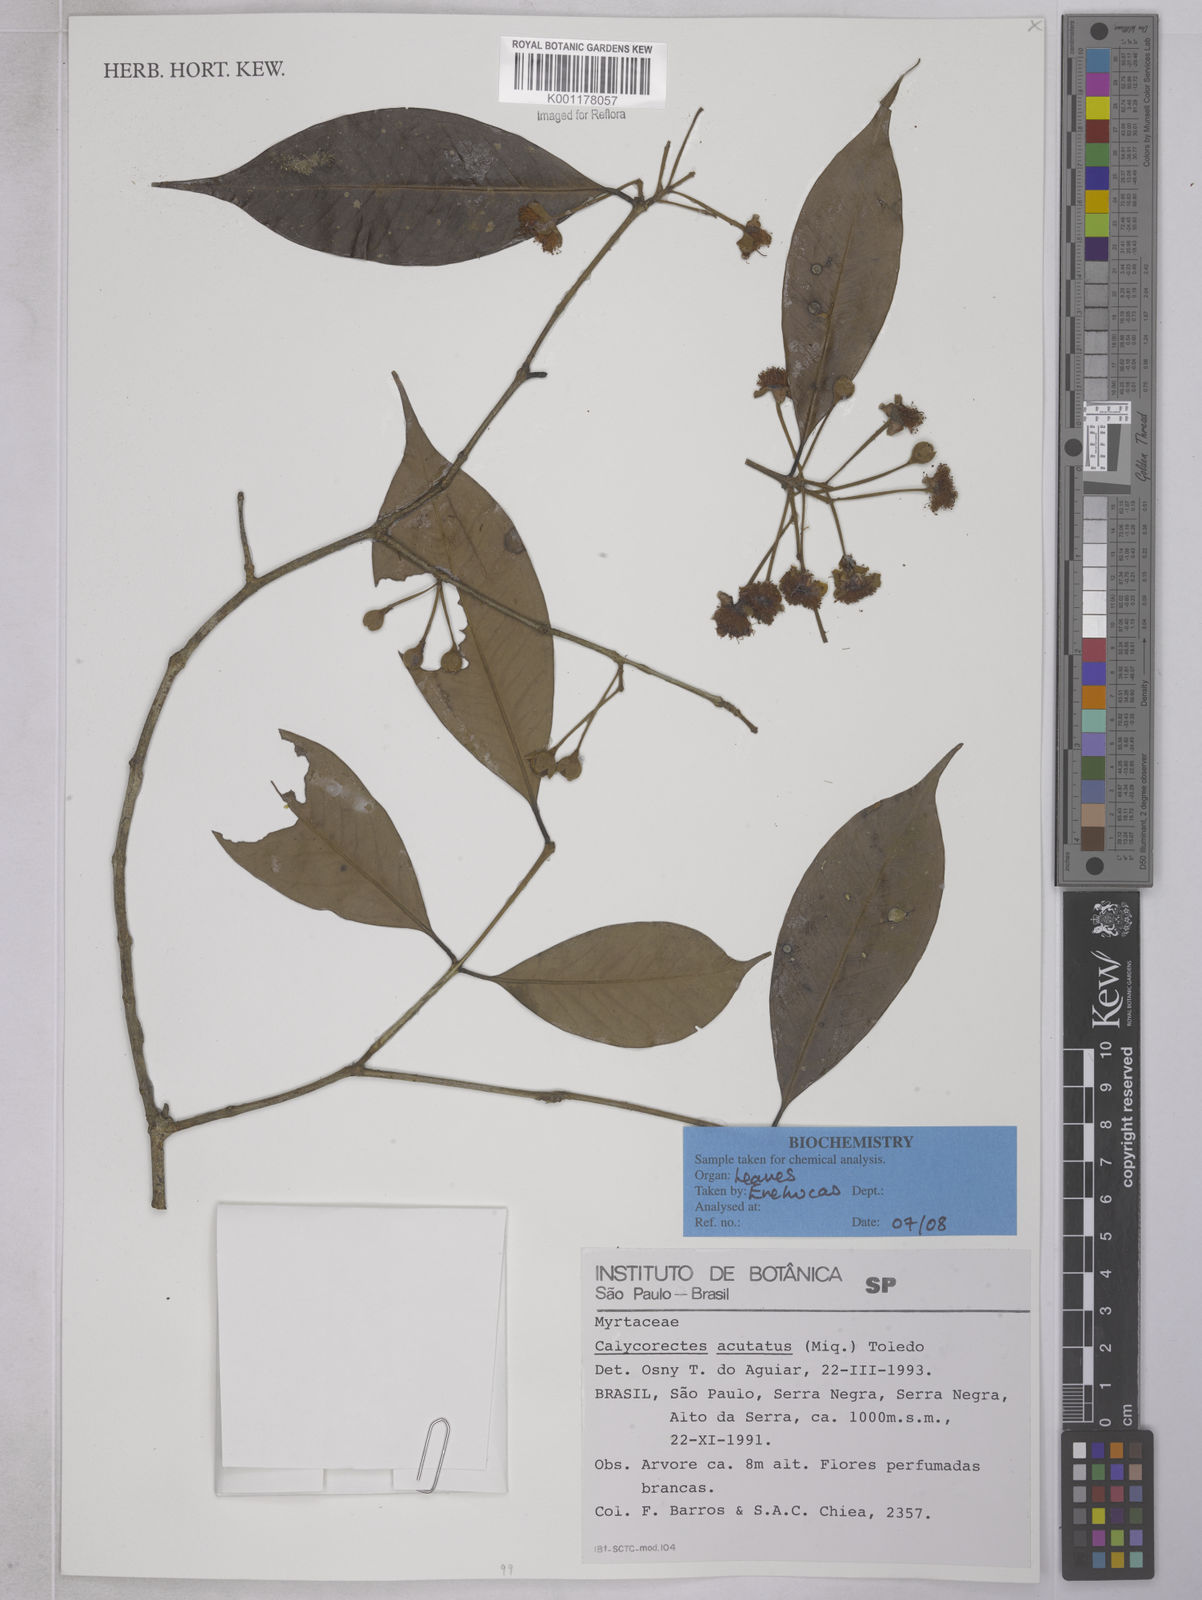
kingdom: Plantae
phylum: Tracheophyta
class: Magnoliopsida
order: Myrtales
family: Myrtaceae
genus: Calycorectes
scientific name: Calycorectes acutatus
